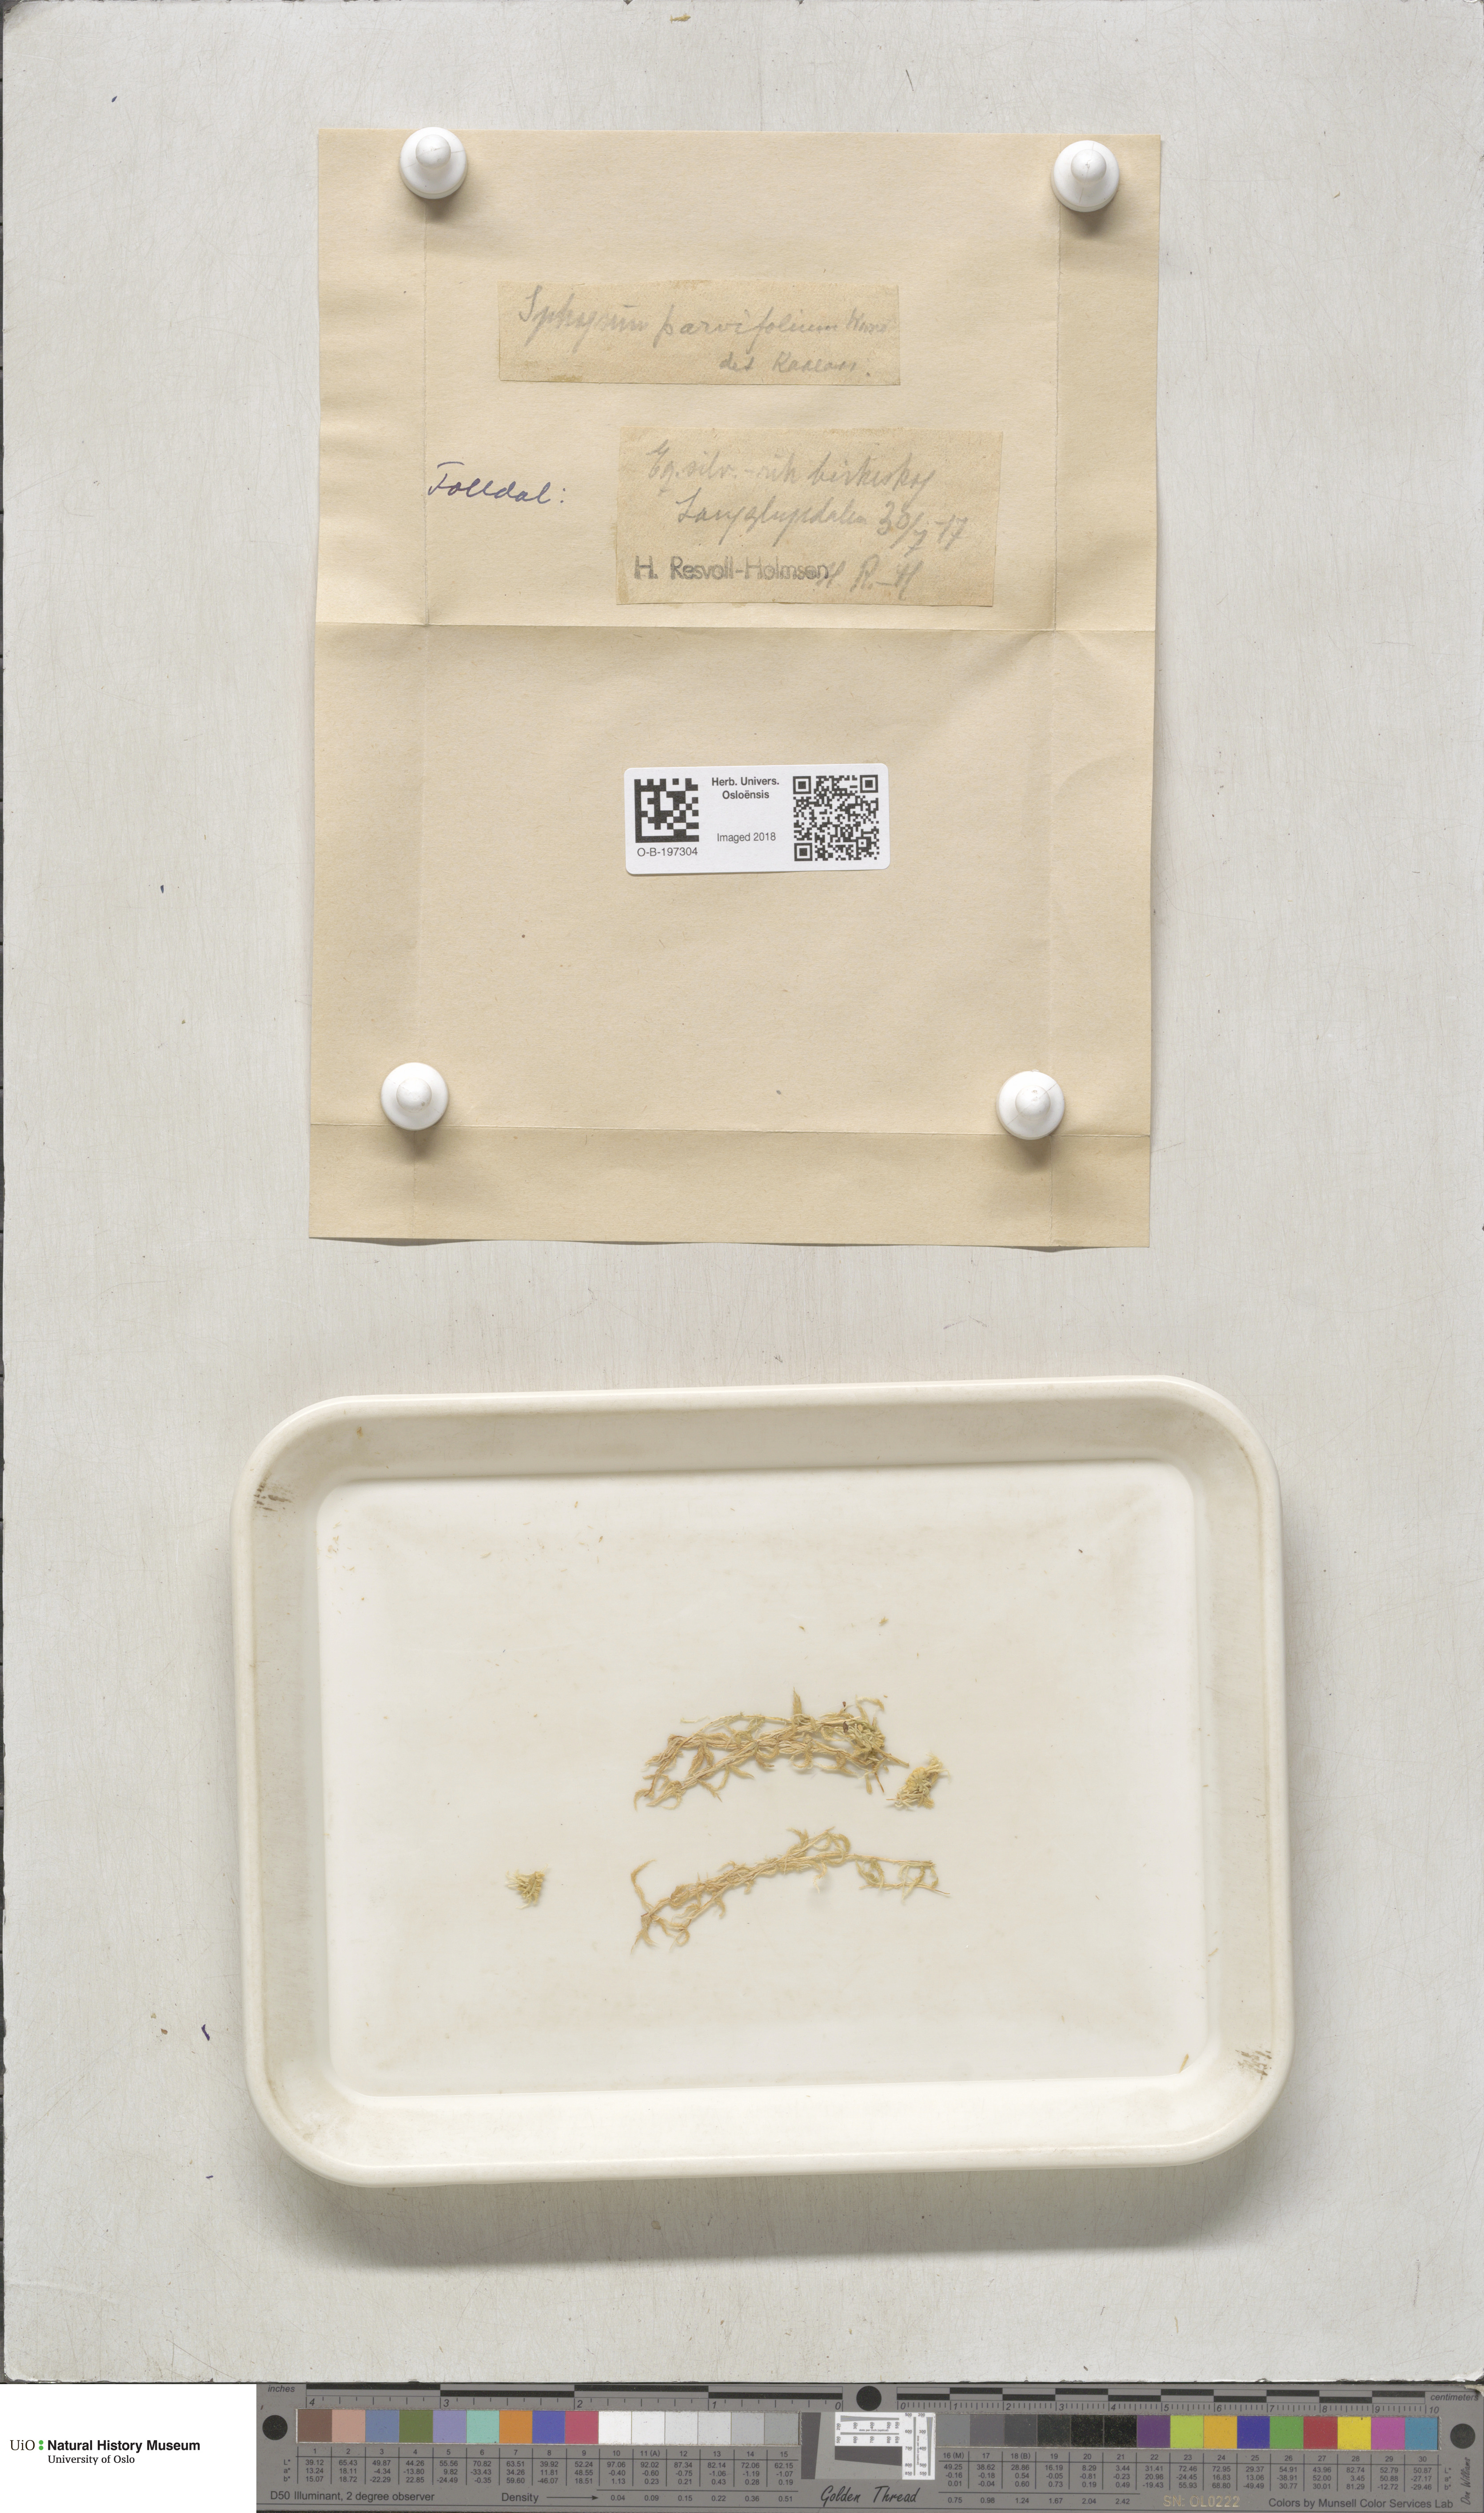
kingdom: Plantae
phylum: Bryophyta
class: Sphagnopsida
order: Sphagnales
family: Sphagnaceae
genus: Sphagnum
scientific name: Sphagnum angustifolium
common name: Narrow-leaved peat moss
